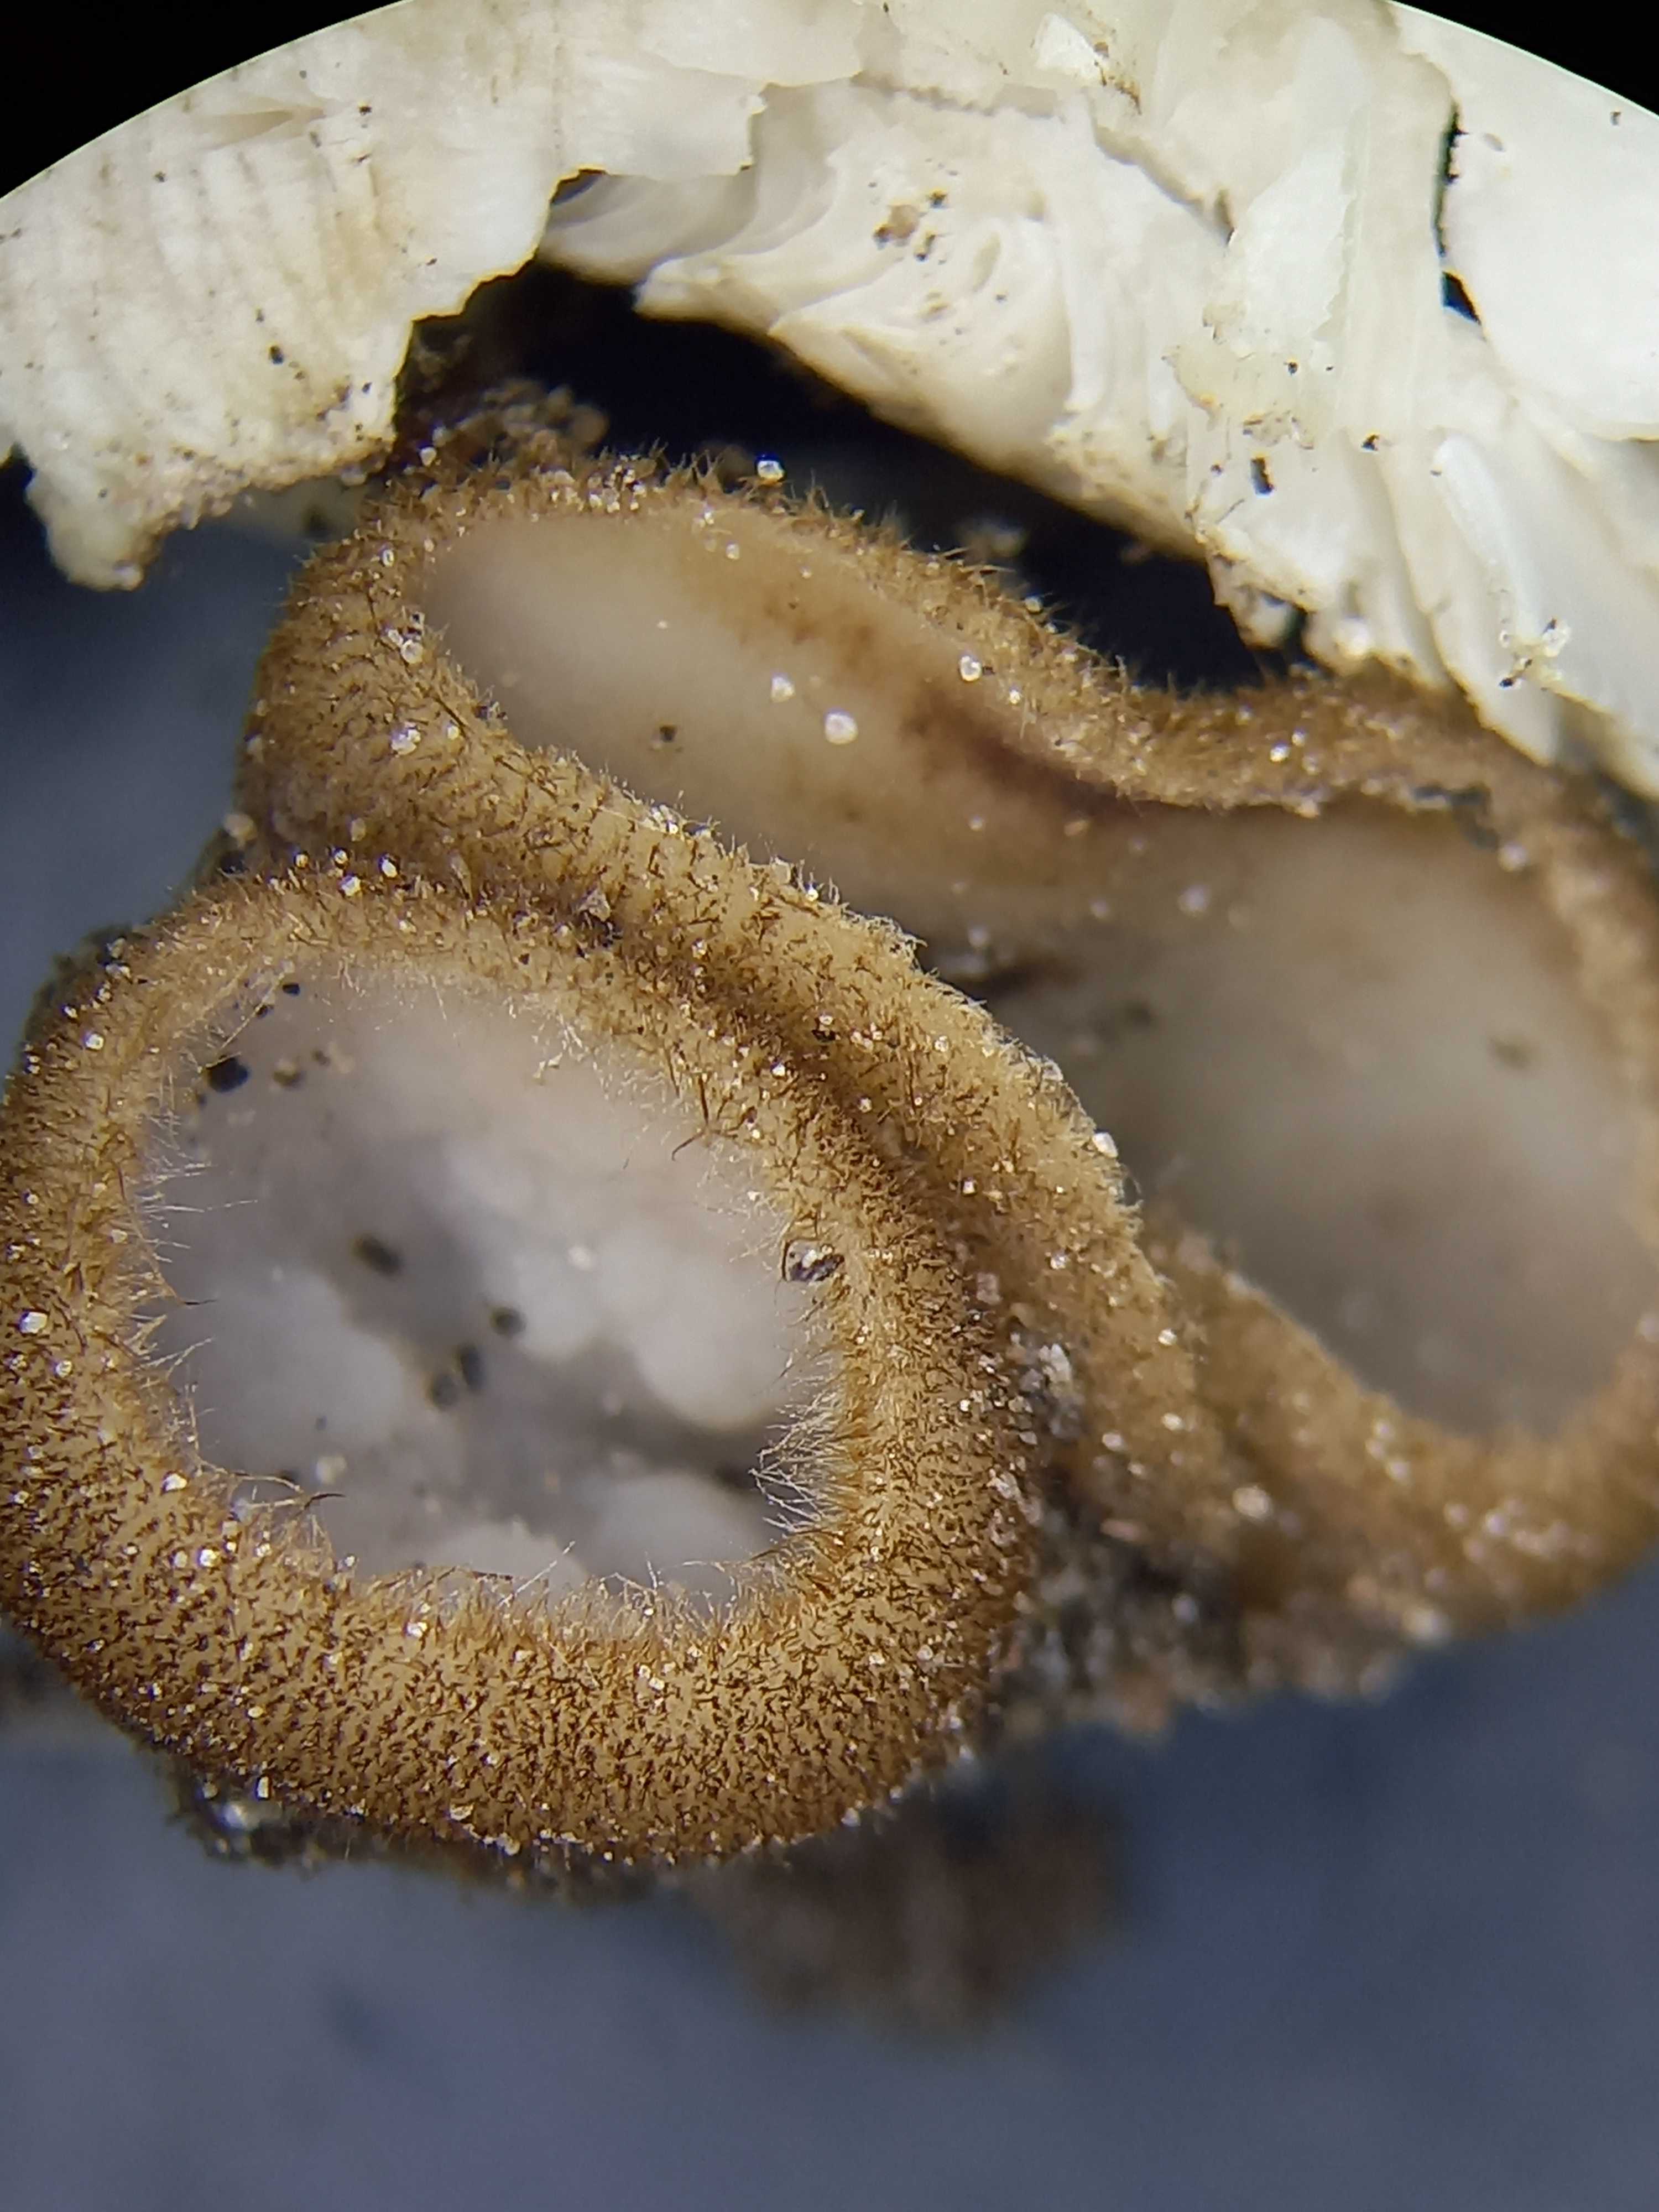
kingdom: Fungi
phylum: Ascomycota
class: Pezizomycetes
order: Pezizales
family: Pyronemataceae
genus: Humaria
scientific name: Humaria hemisphaerica
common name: halvkugleformet børstebæger
